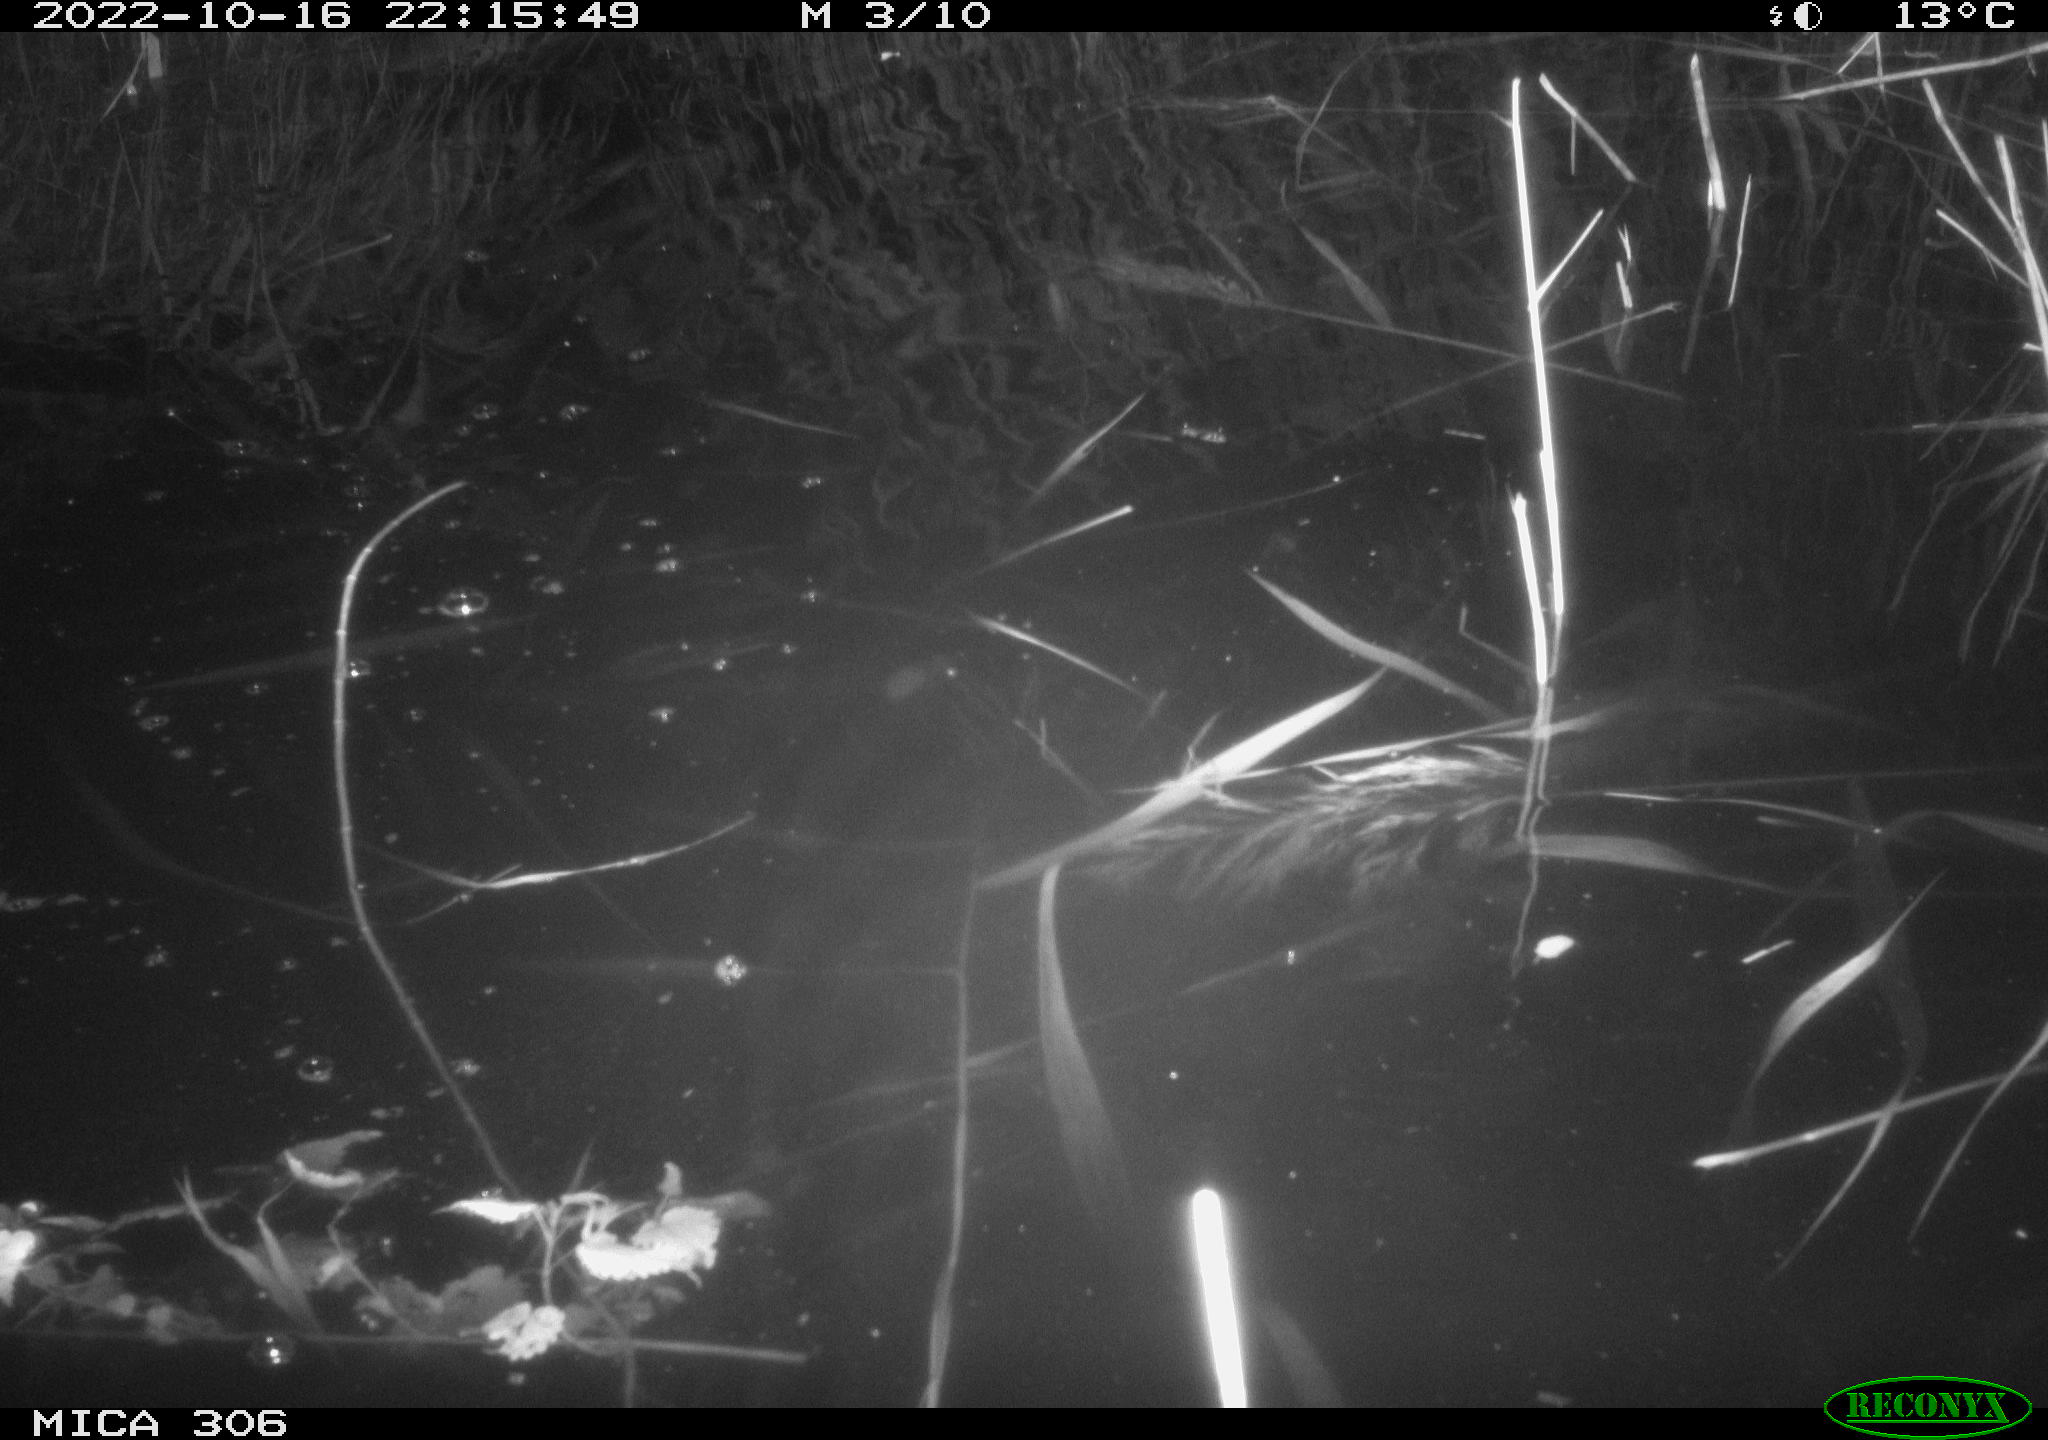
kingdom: Animalia
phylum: Chordata
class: Mammalia
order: Rodentia
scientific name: Rodentia
